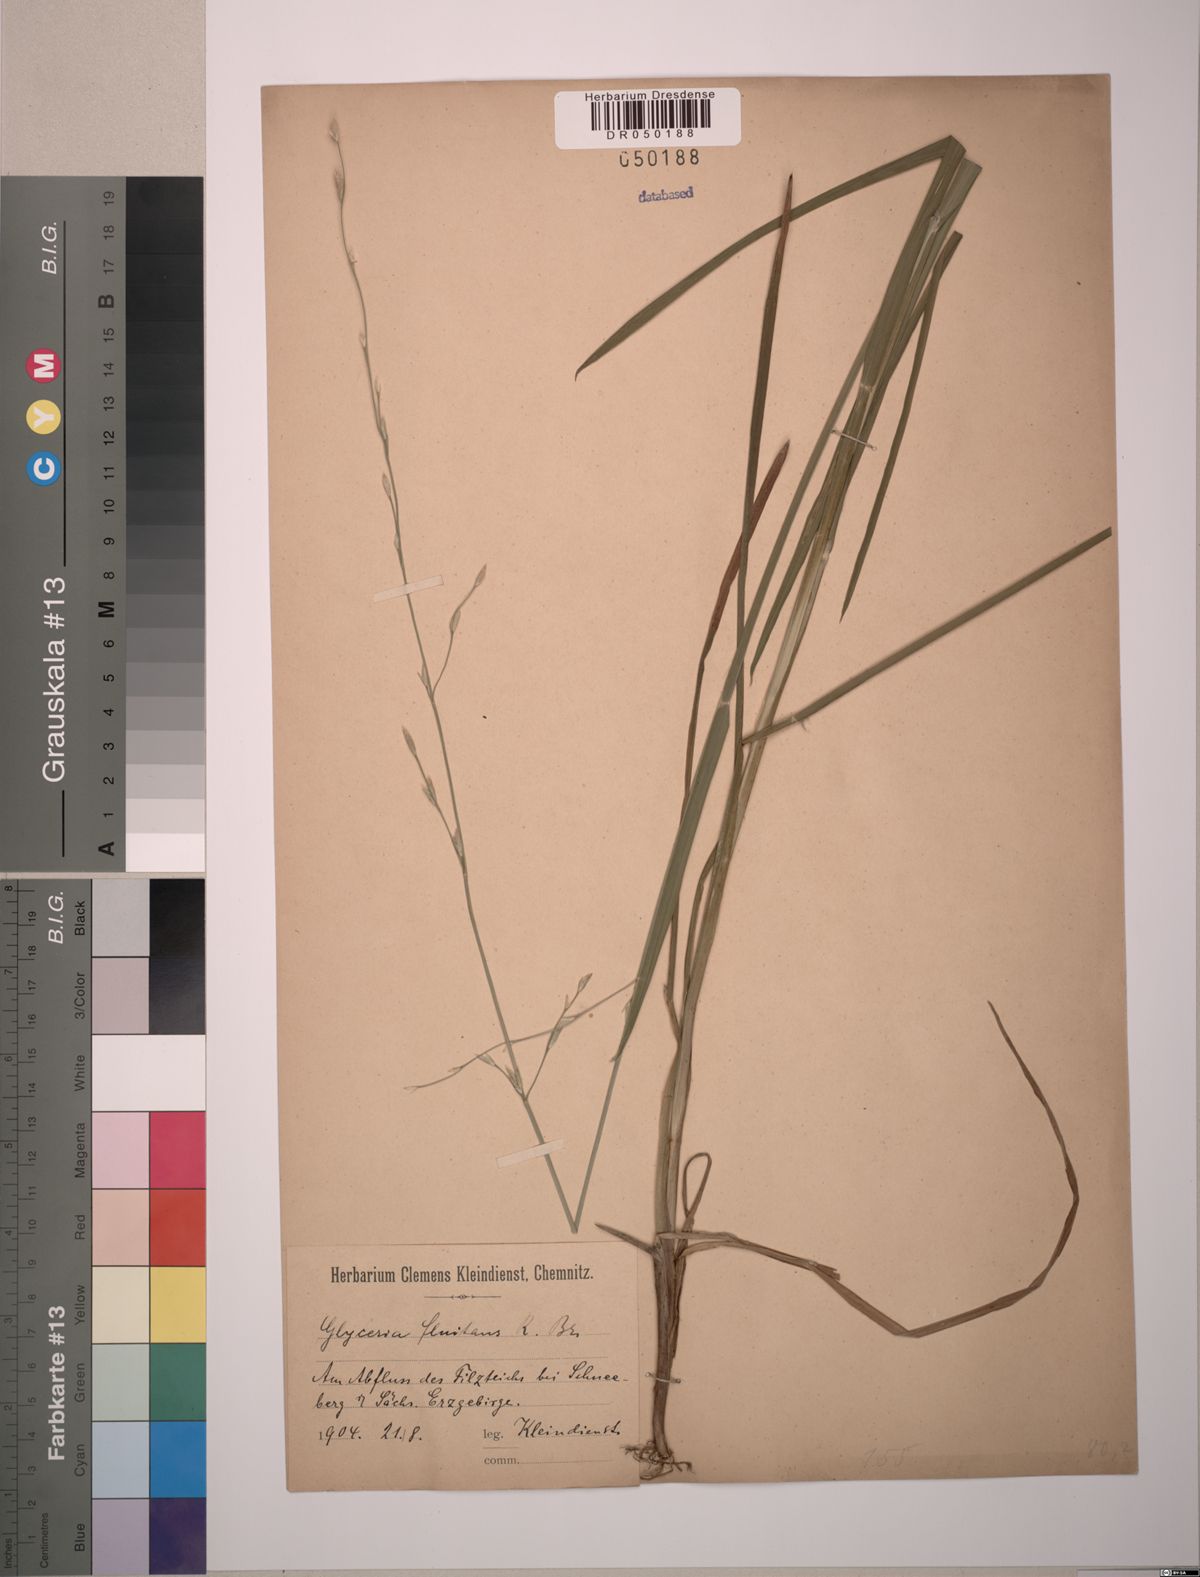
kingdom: Plantae
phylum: Tracheophyta
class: Liliopsida
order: Poales
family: Poaceae
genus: Glyceria
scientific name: Glyceria fluitans
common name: Floating sweet-grass
